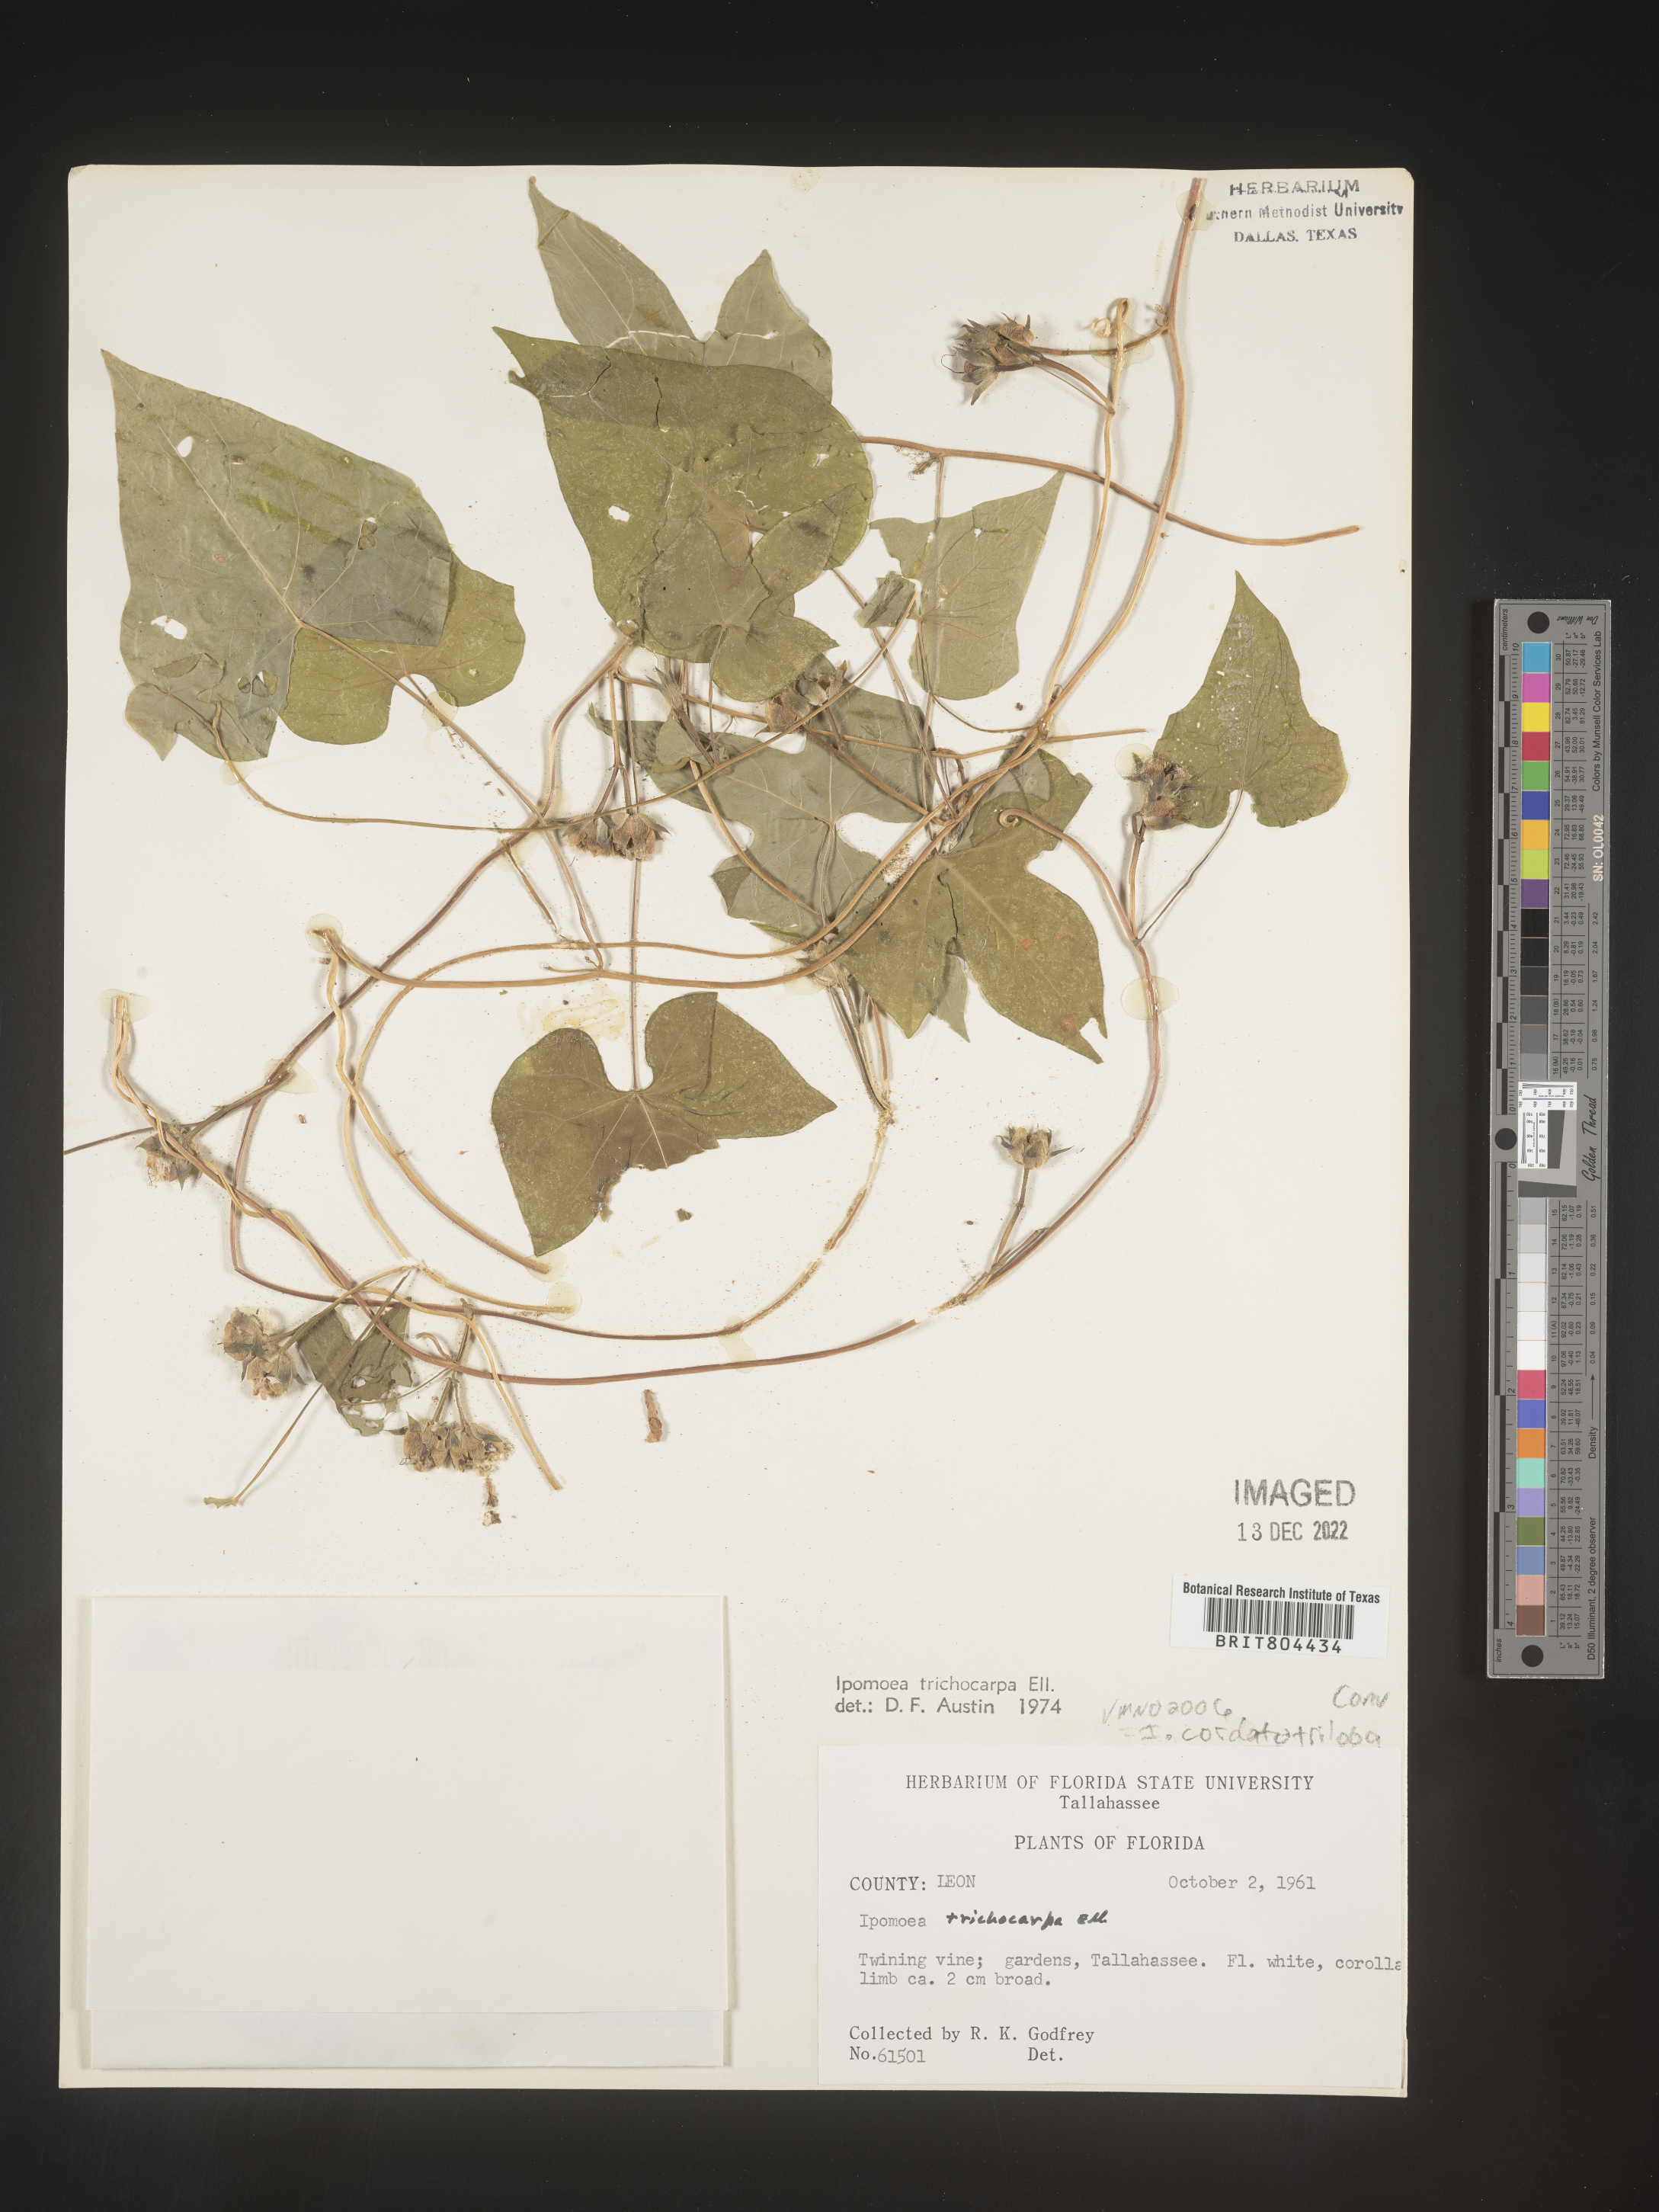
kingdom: Plantae
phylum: Tracheophyta
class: Magnoliopsida
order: Solanales
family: Convolvulaceae
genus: Ipomoea
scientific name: Ipomoea cordatotriloba
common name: Cotton morning glory
